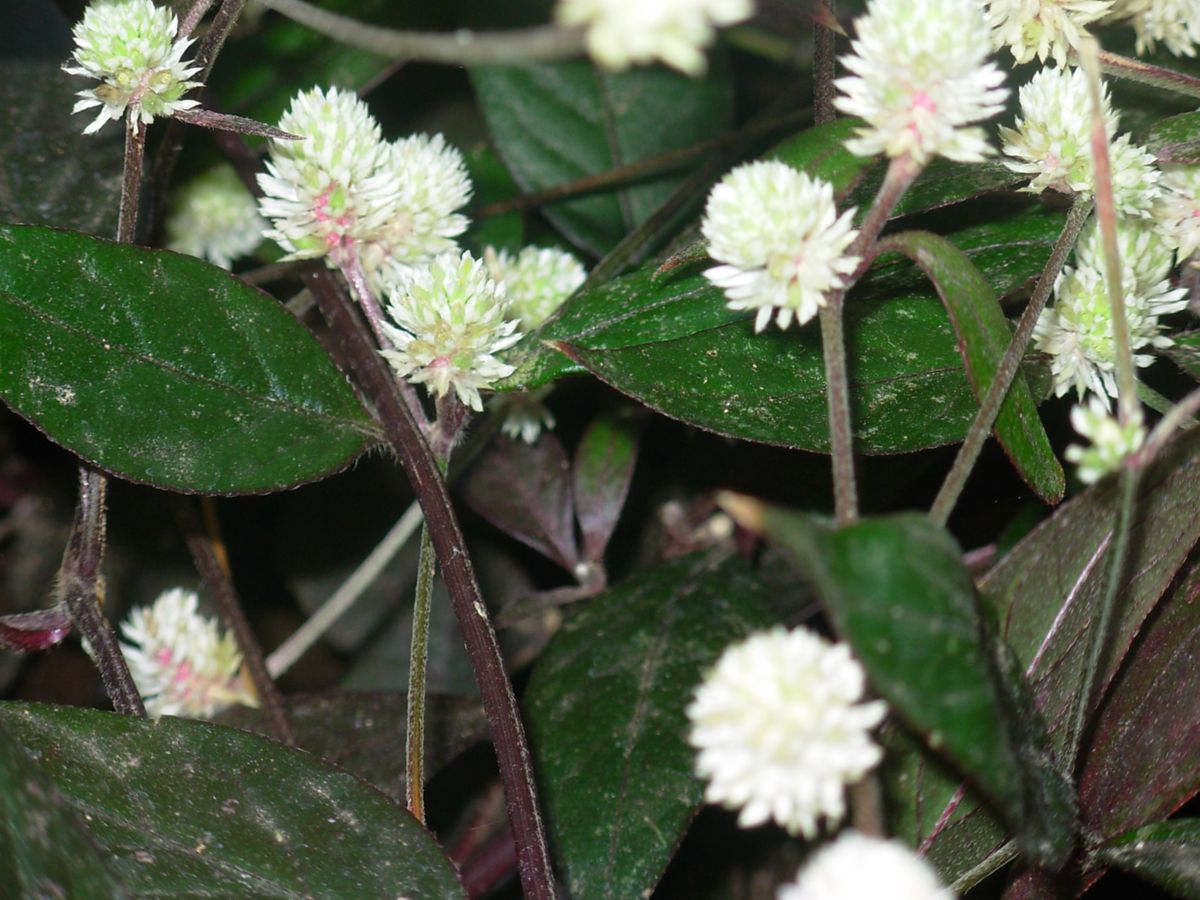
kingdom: Plantae
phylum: Tracheophyta
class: Magnoliopsida
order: Caryophyllales
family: Amaranthaceae
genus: Alternanthera
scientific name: Alternanthera laguroides
